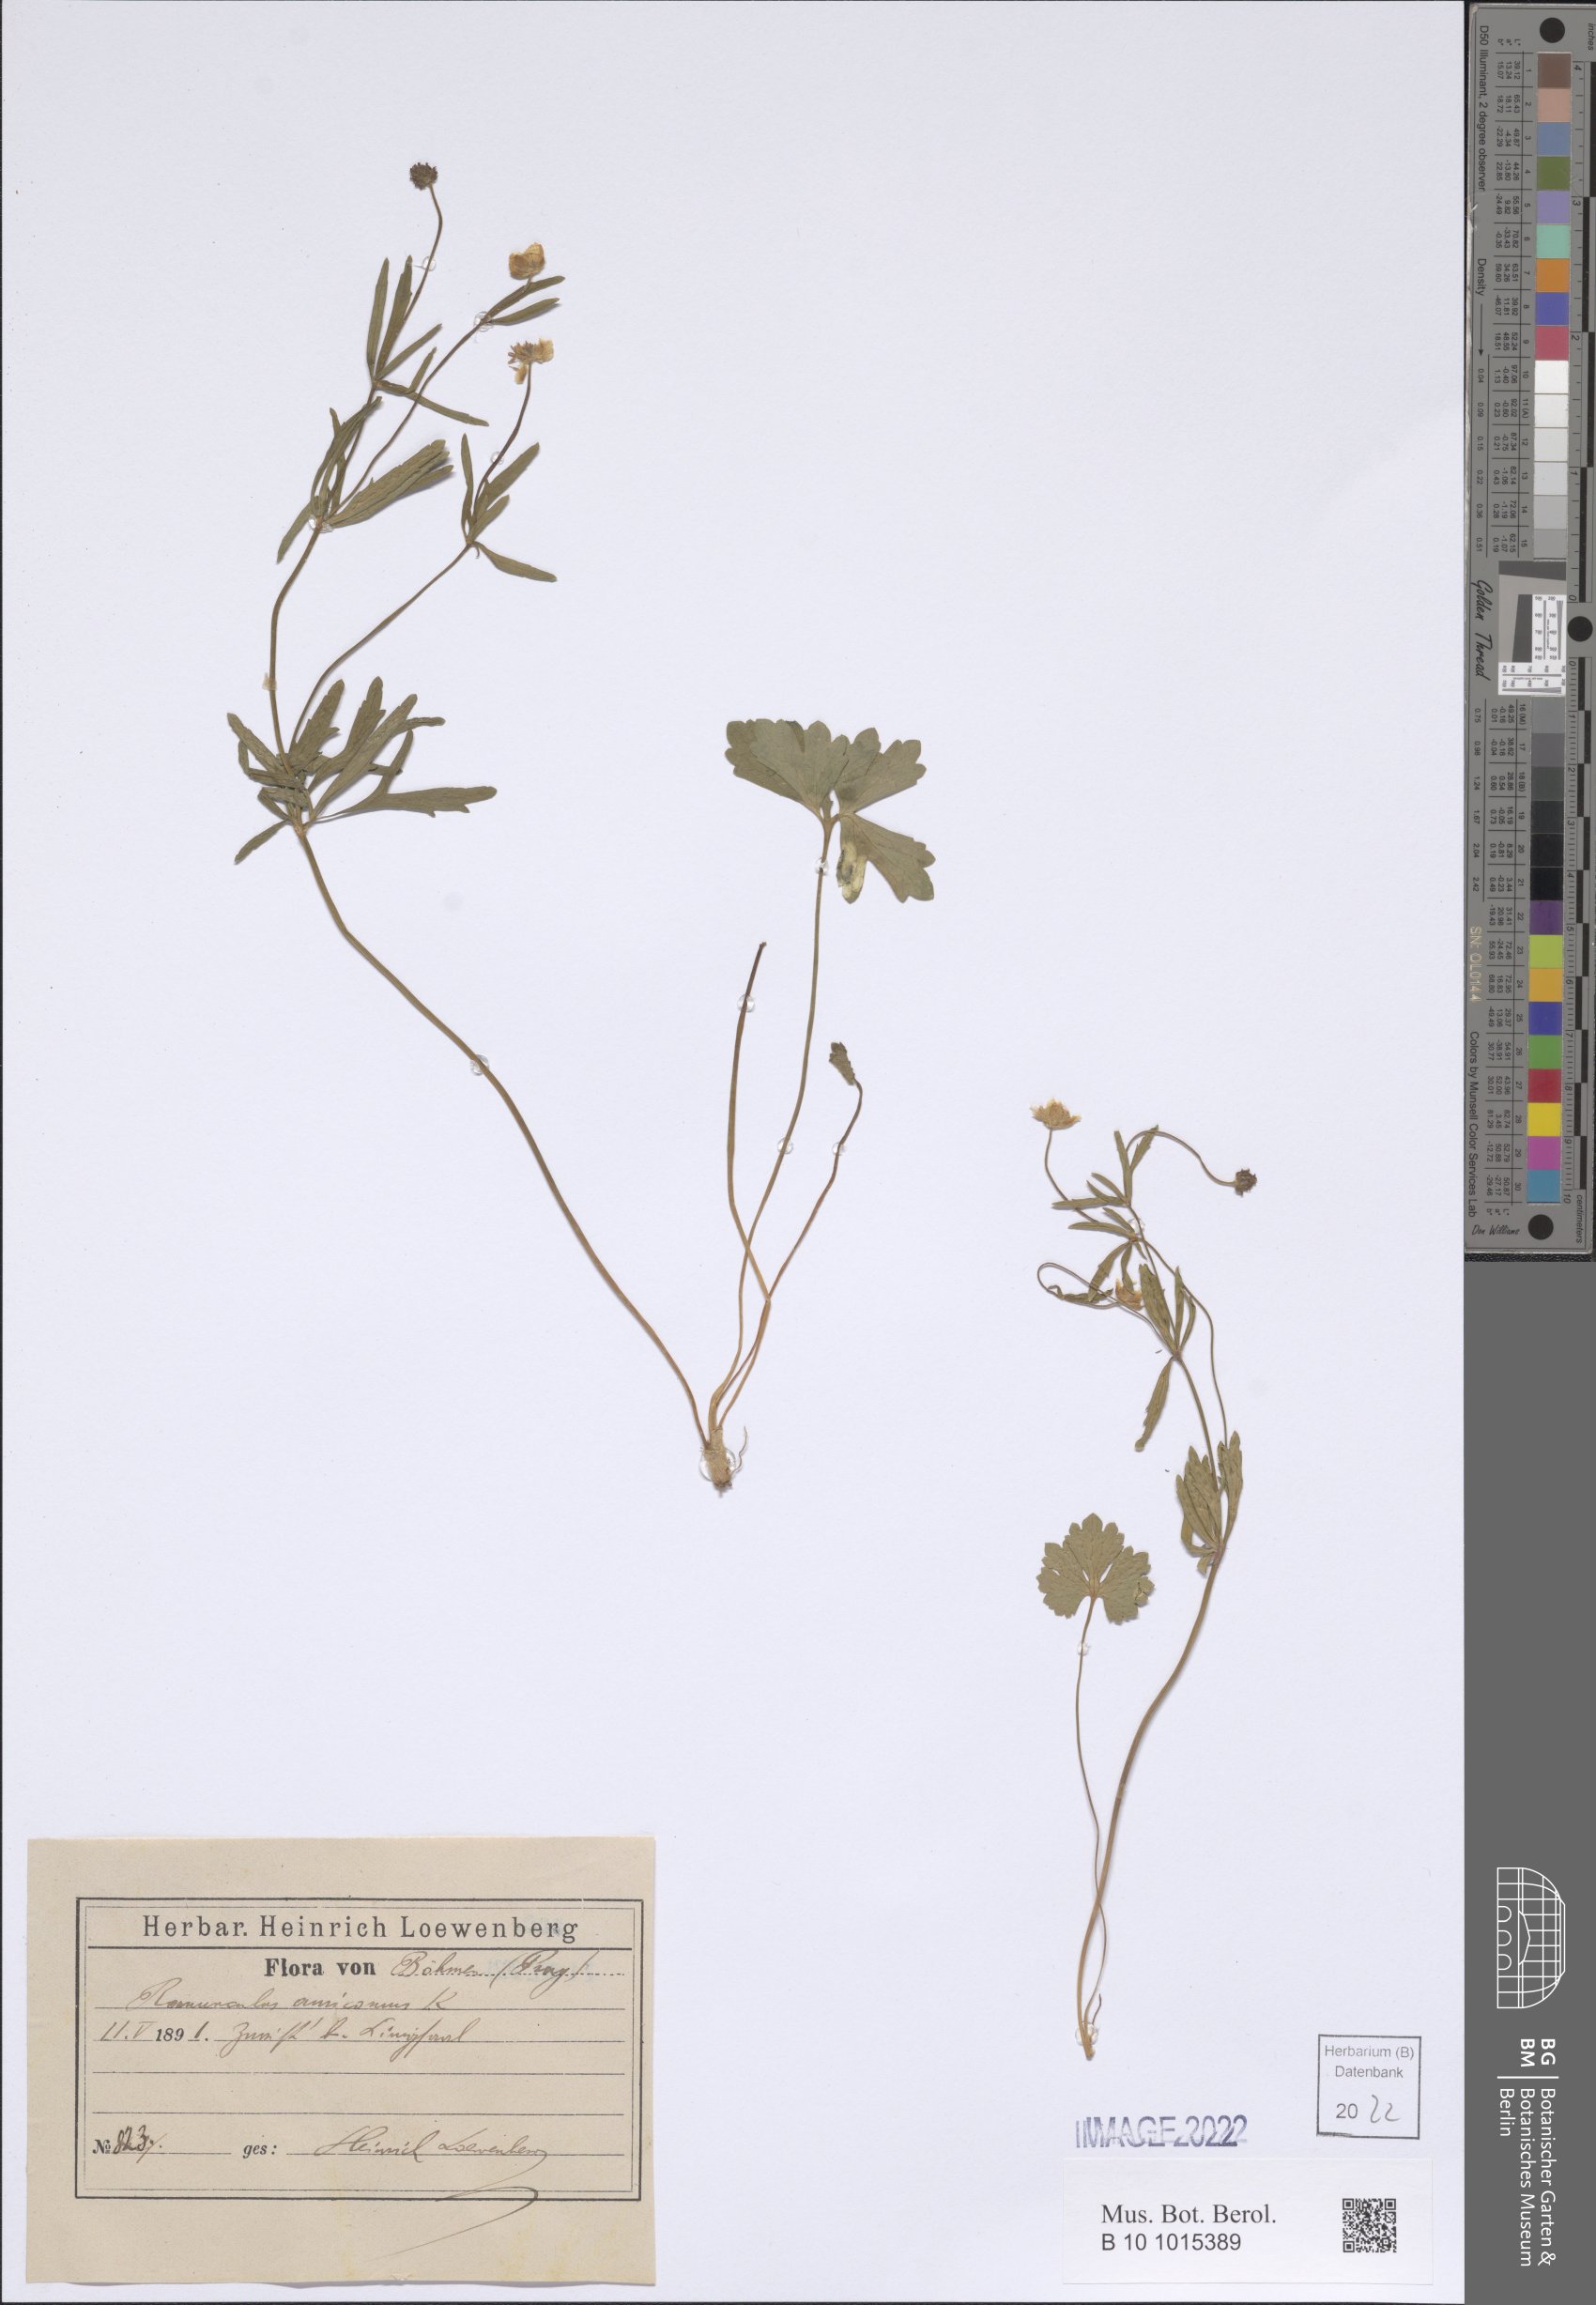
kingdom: Plantae
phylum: Tracheophyta
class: Magnoliopsida
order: Ranunculales
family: Ranunculaceae
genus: Ranunculus
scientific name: Ranunculus auricomus
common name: Goldilocks buttercup
